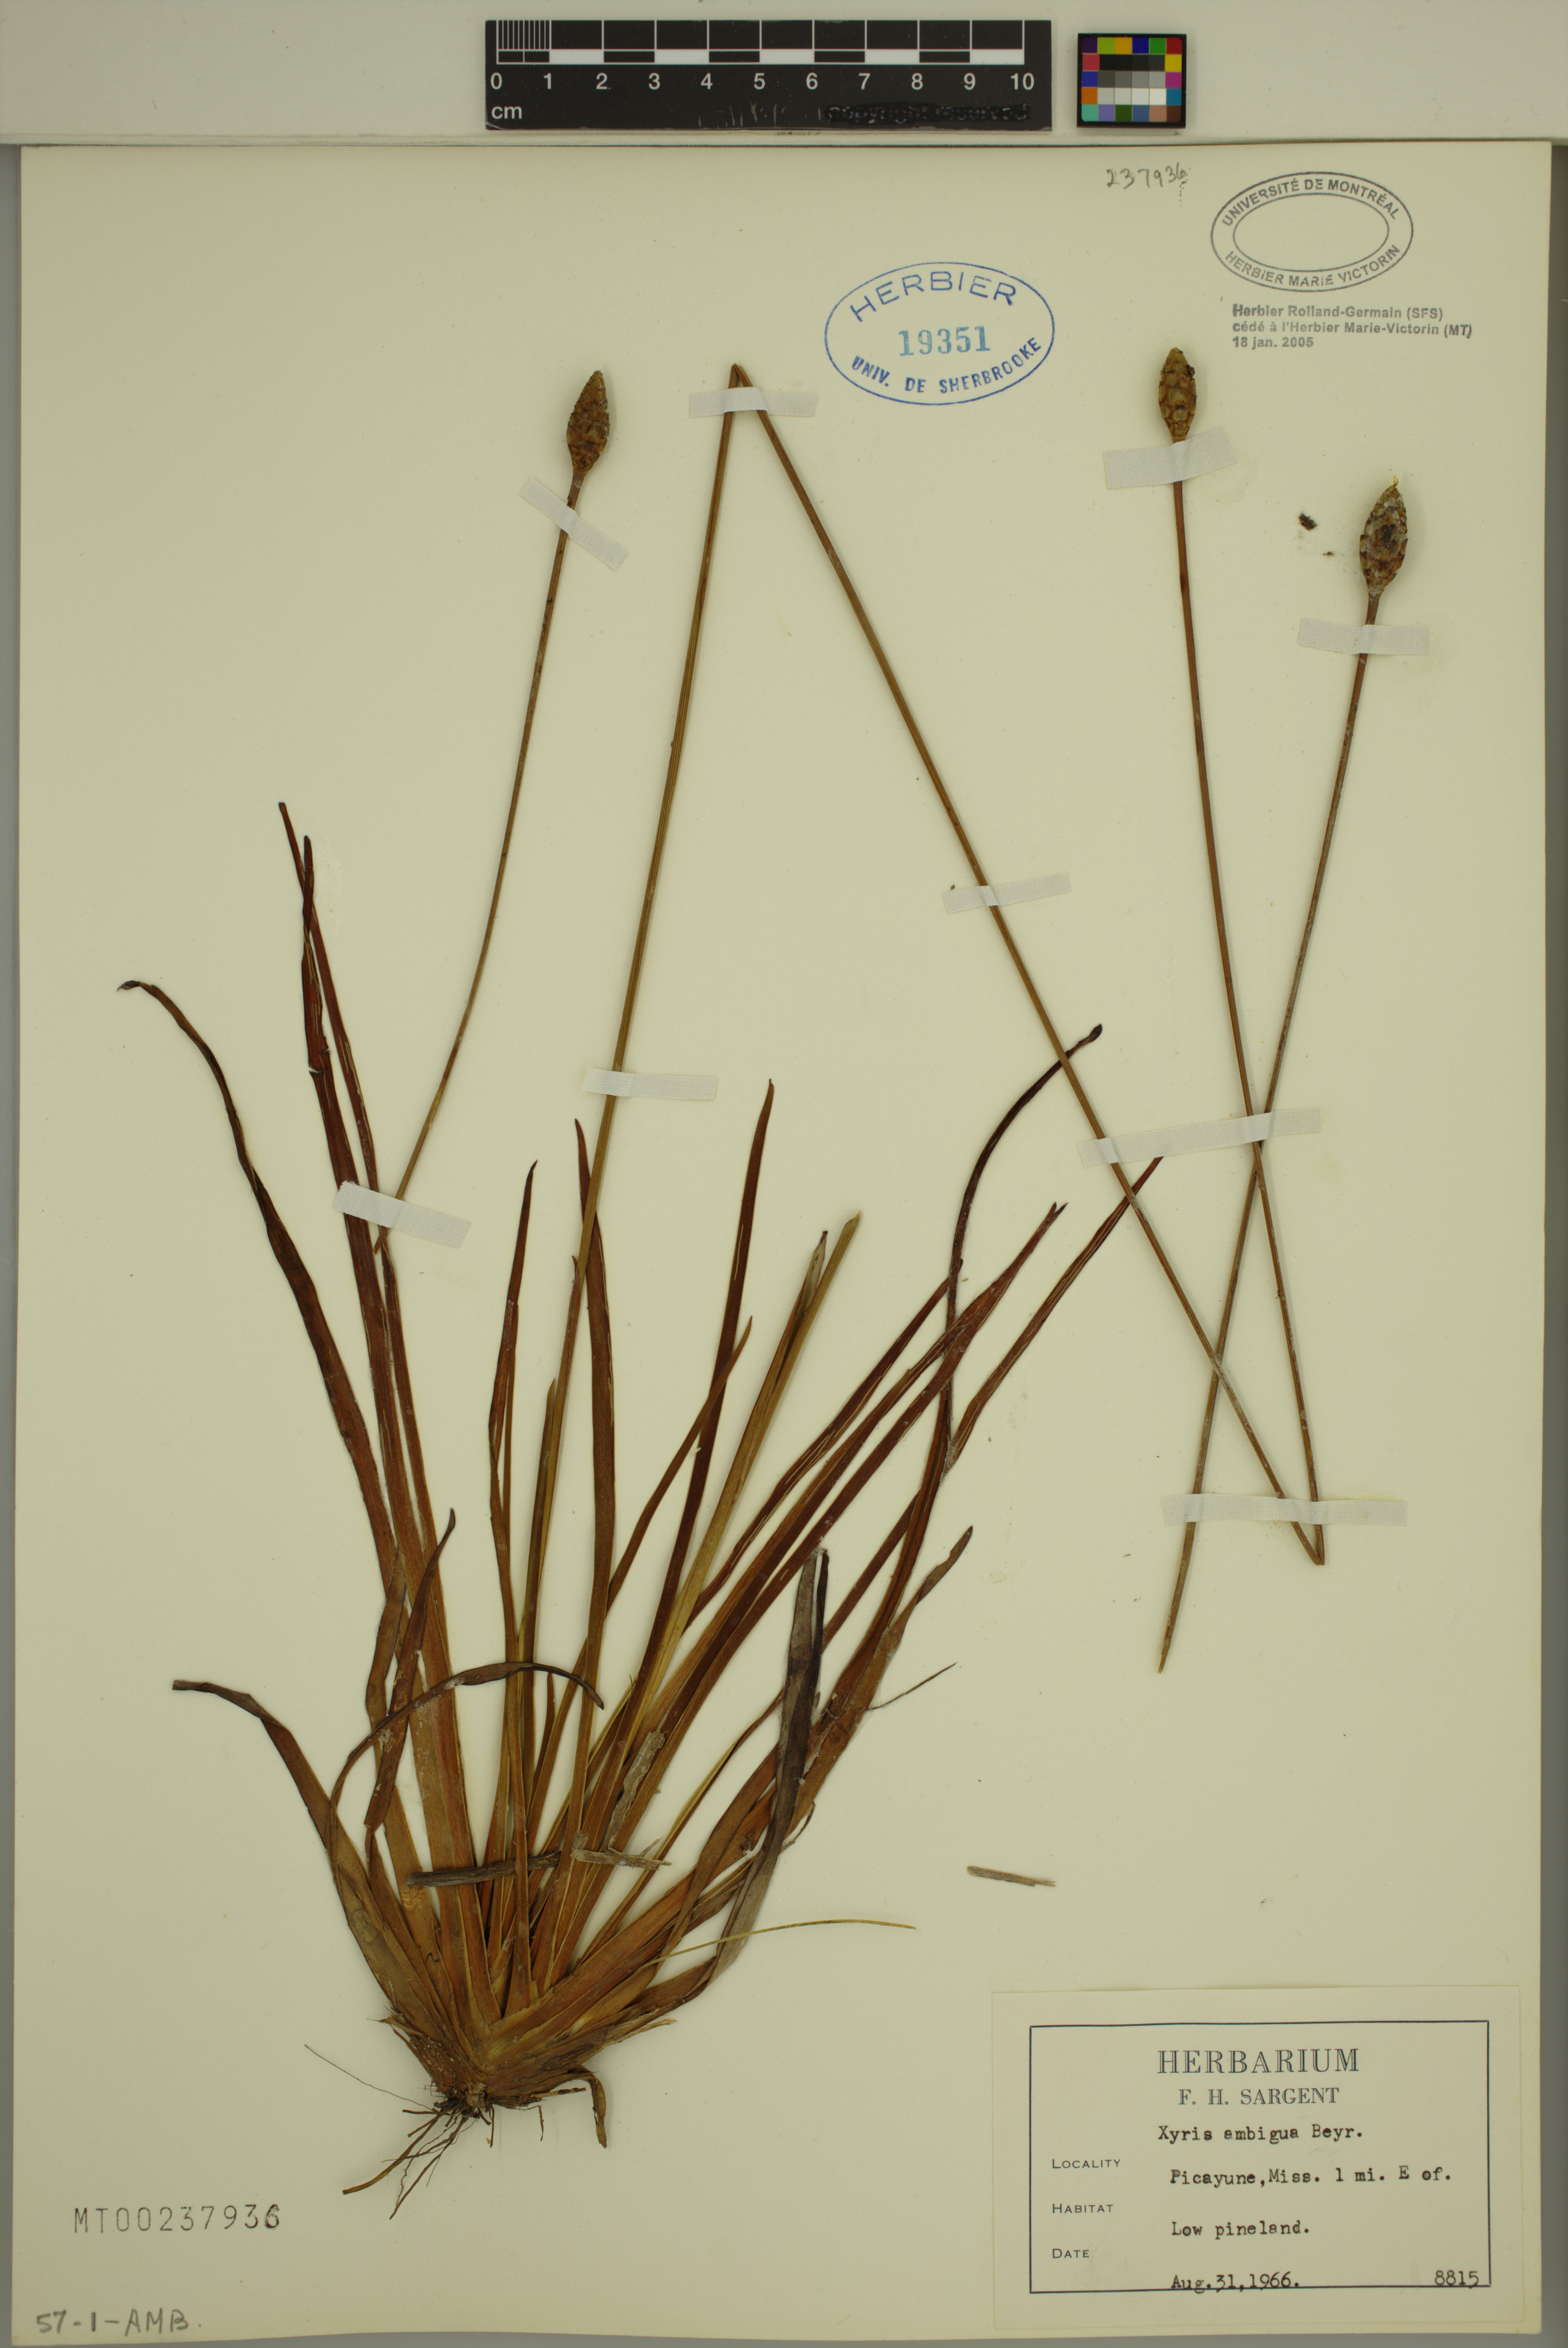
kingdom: Plantae
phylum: Tracheophyta
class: Liliopsida
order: Poales
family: Xyridaceae
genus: Xyris
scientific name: Xyris ambigua
